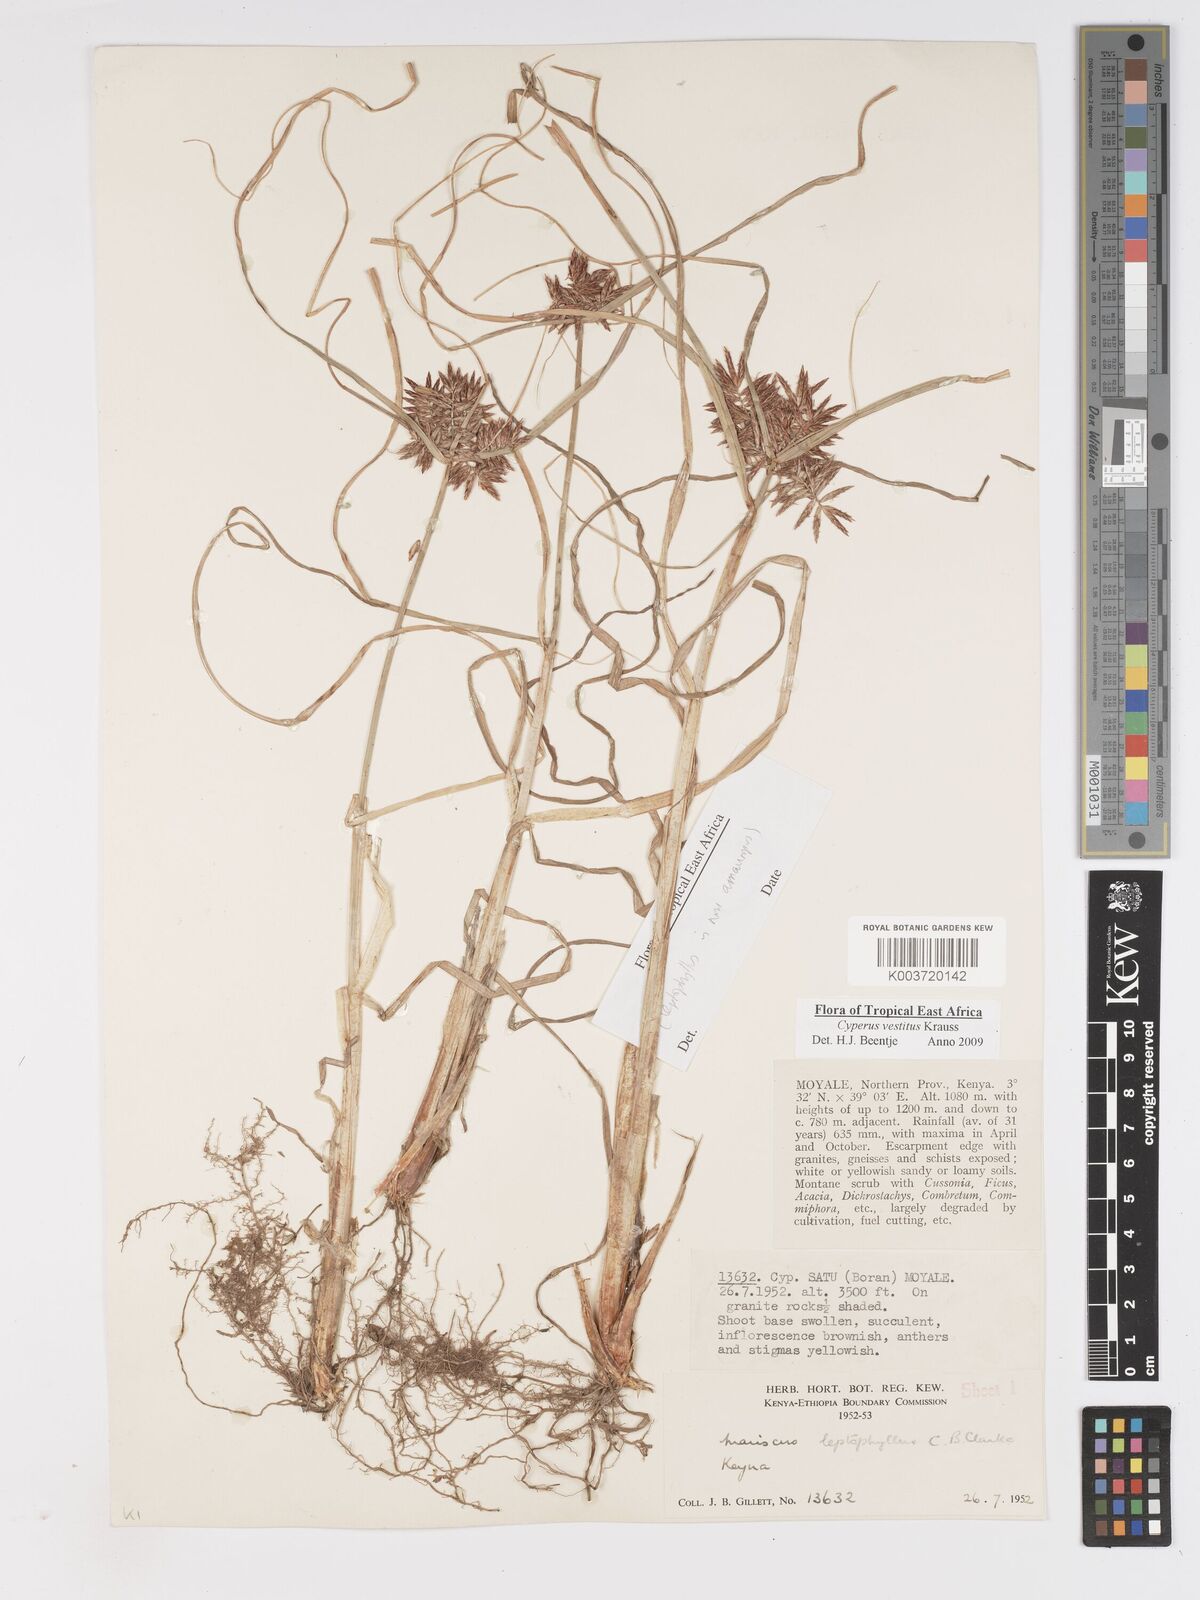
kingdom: Plantae
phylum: Tracheophyta
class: Liliopsida
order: Poales
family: Cyperaceae
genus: Cyperus
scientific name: Cyperus vestitus
